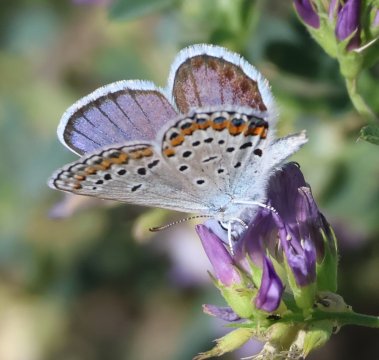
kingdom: Animalia
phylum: Arthropoda
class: Insecta
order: Lepidoptera
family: Lycaenidae
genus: Lycaeides
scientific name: Lycaeides melissa
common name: Melissa Blue
